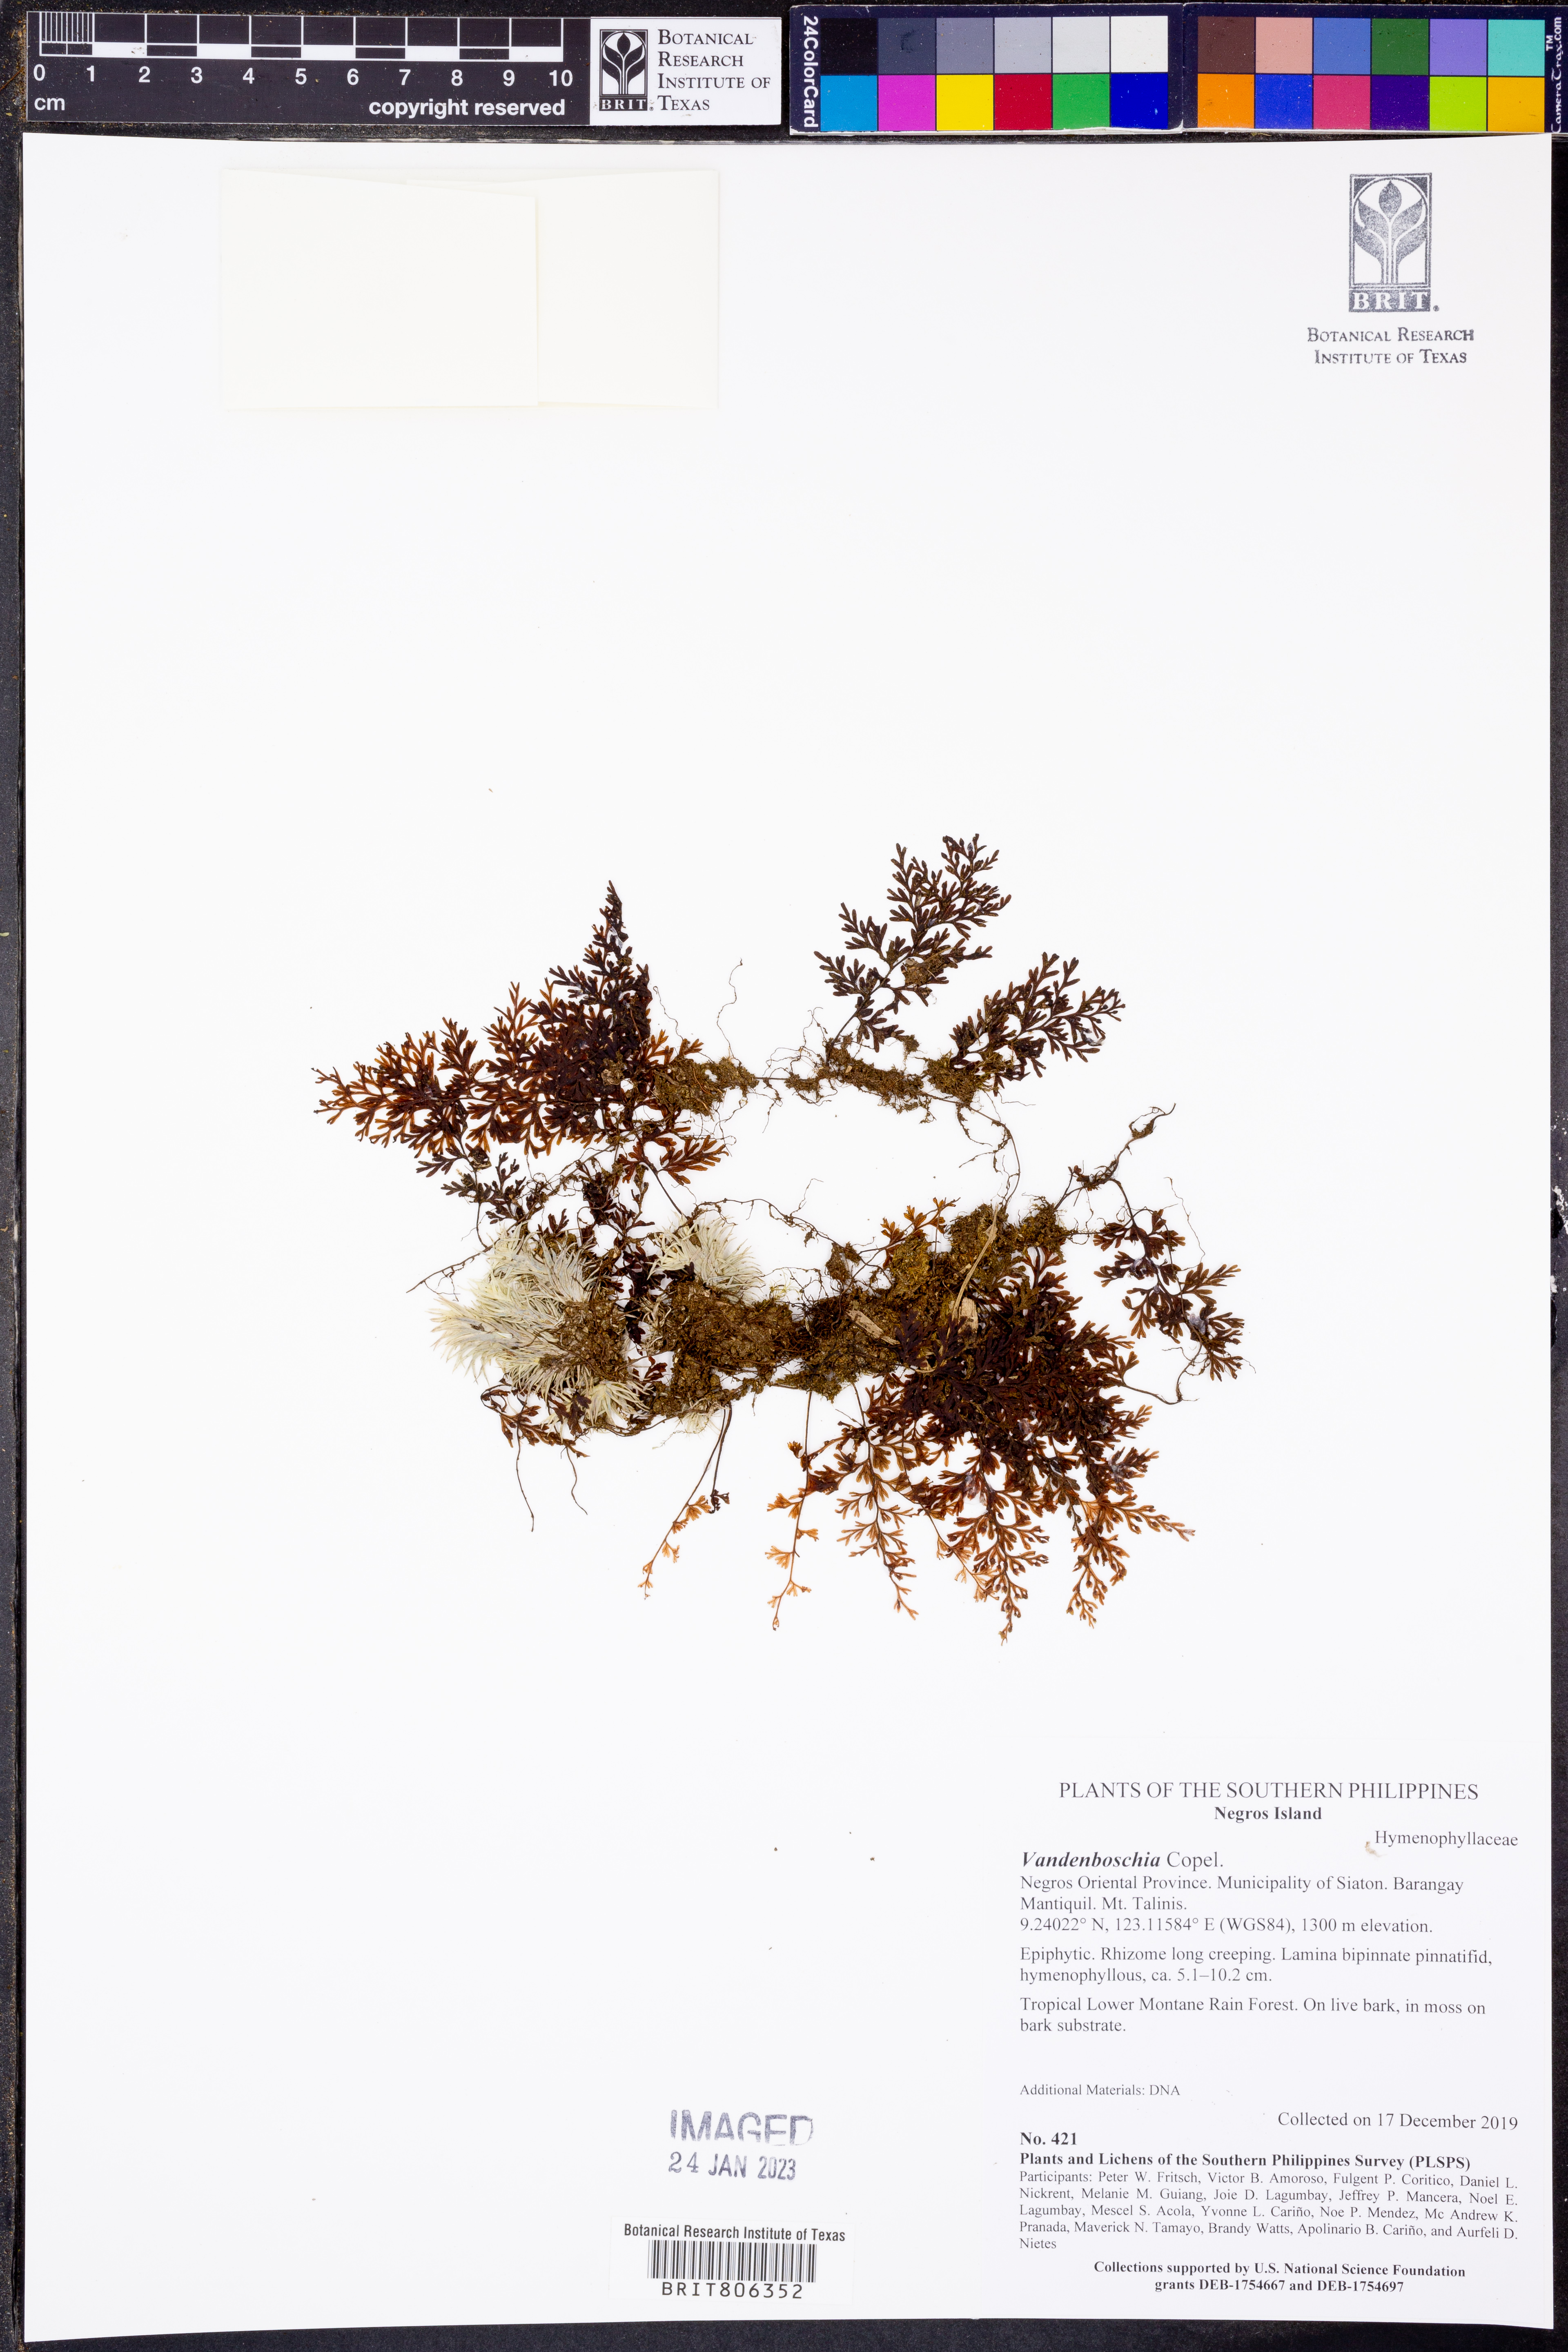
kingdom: Plantae
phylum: Tracheophyta
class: Polypodiopsida
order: Hymenophyllales
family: Hymenophyllaceae
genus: Vandenboschia
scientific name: Vandenboschia
